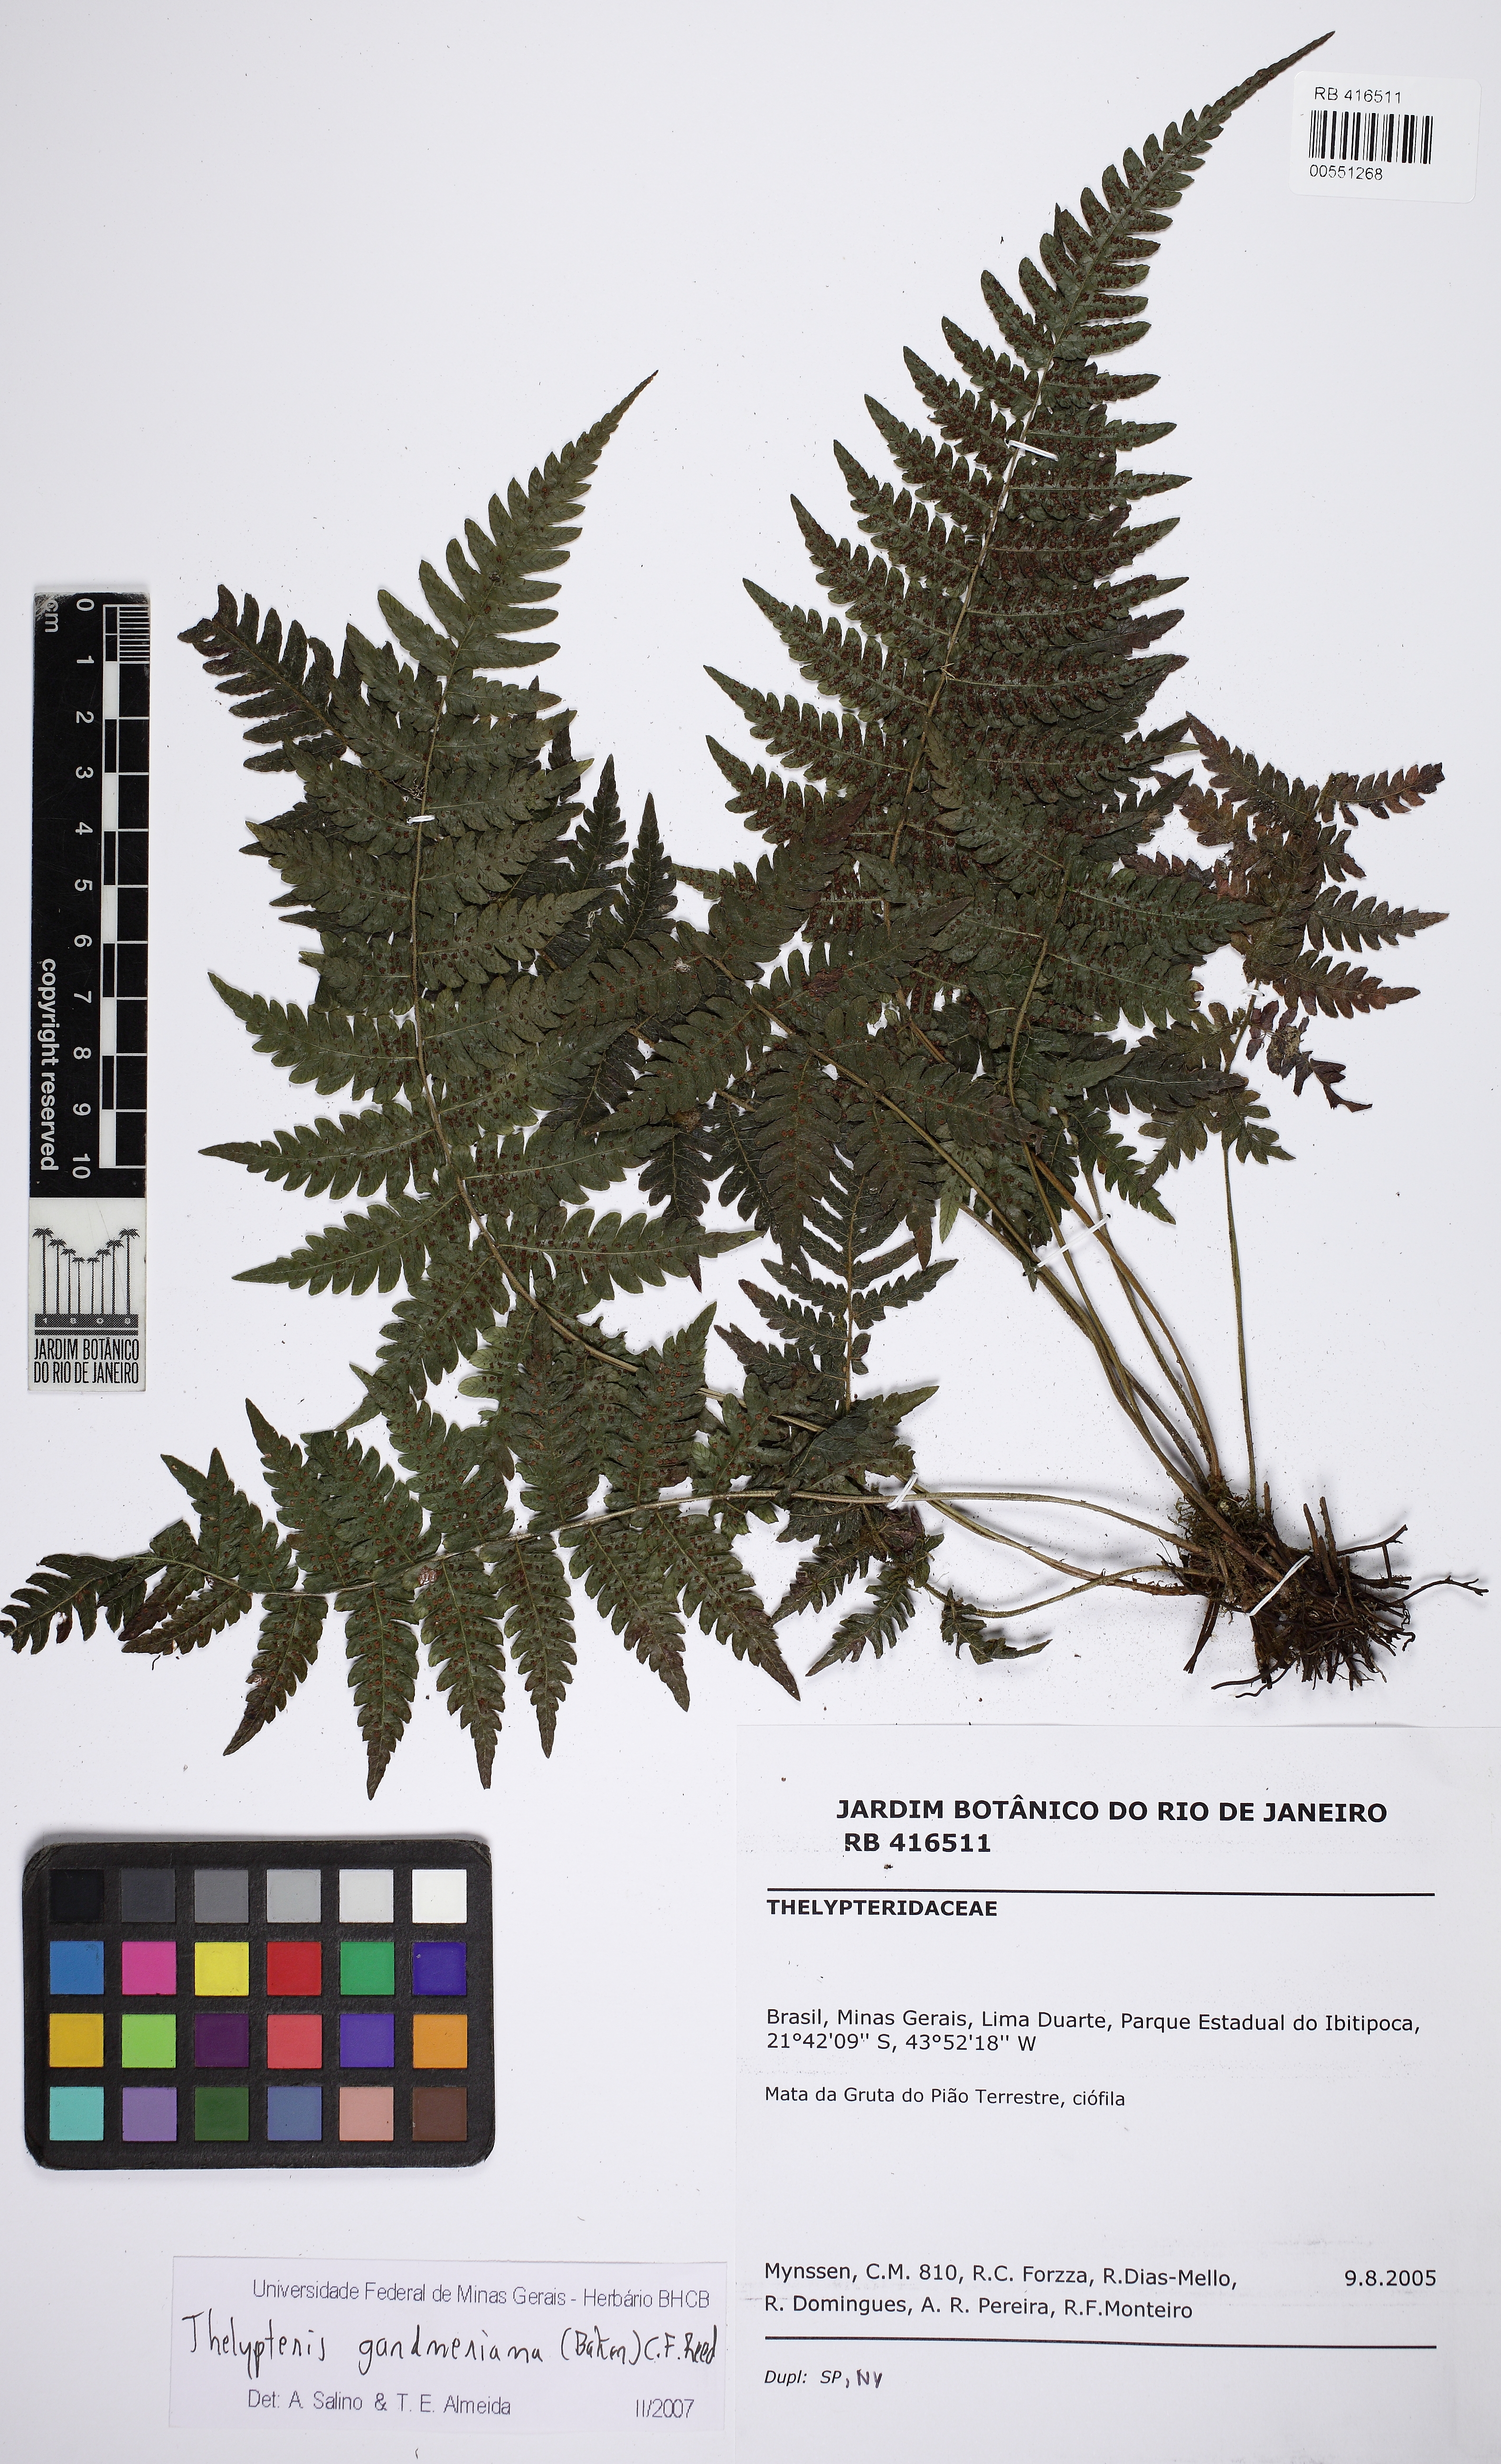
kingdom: Plantae
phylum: Tracheophyta
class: Polypodiopsida
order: Polypodiales
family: Thelypteridaceae
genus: Steiropteris
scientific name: Steiropteris gardneriana
